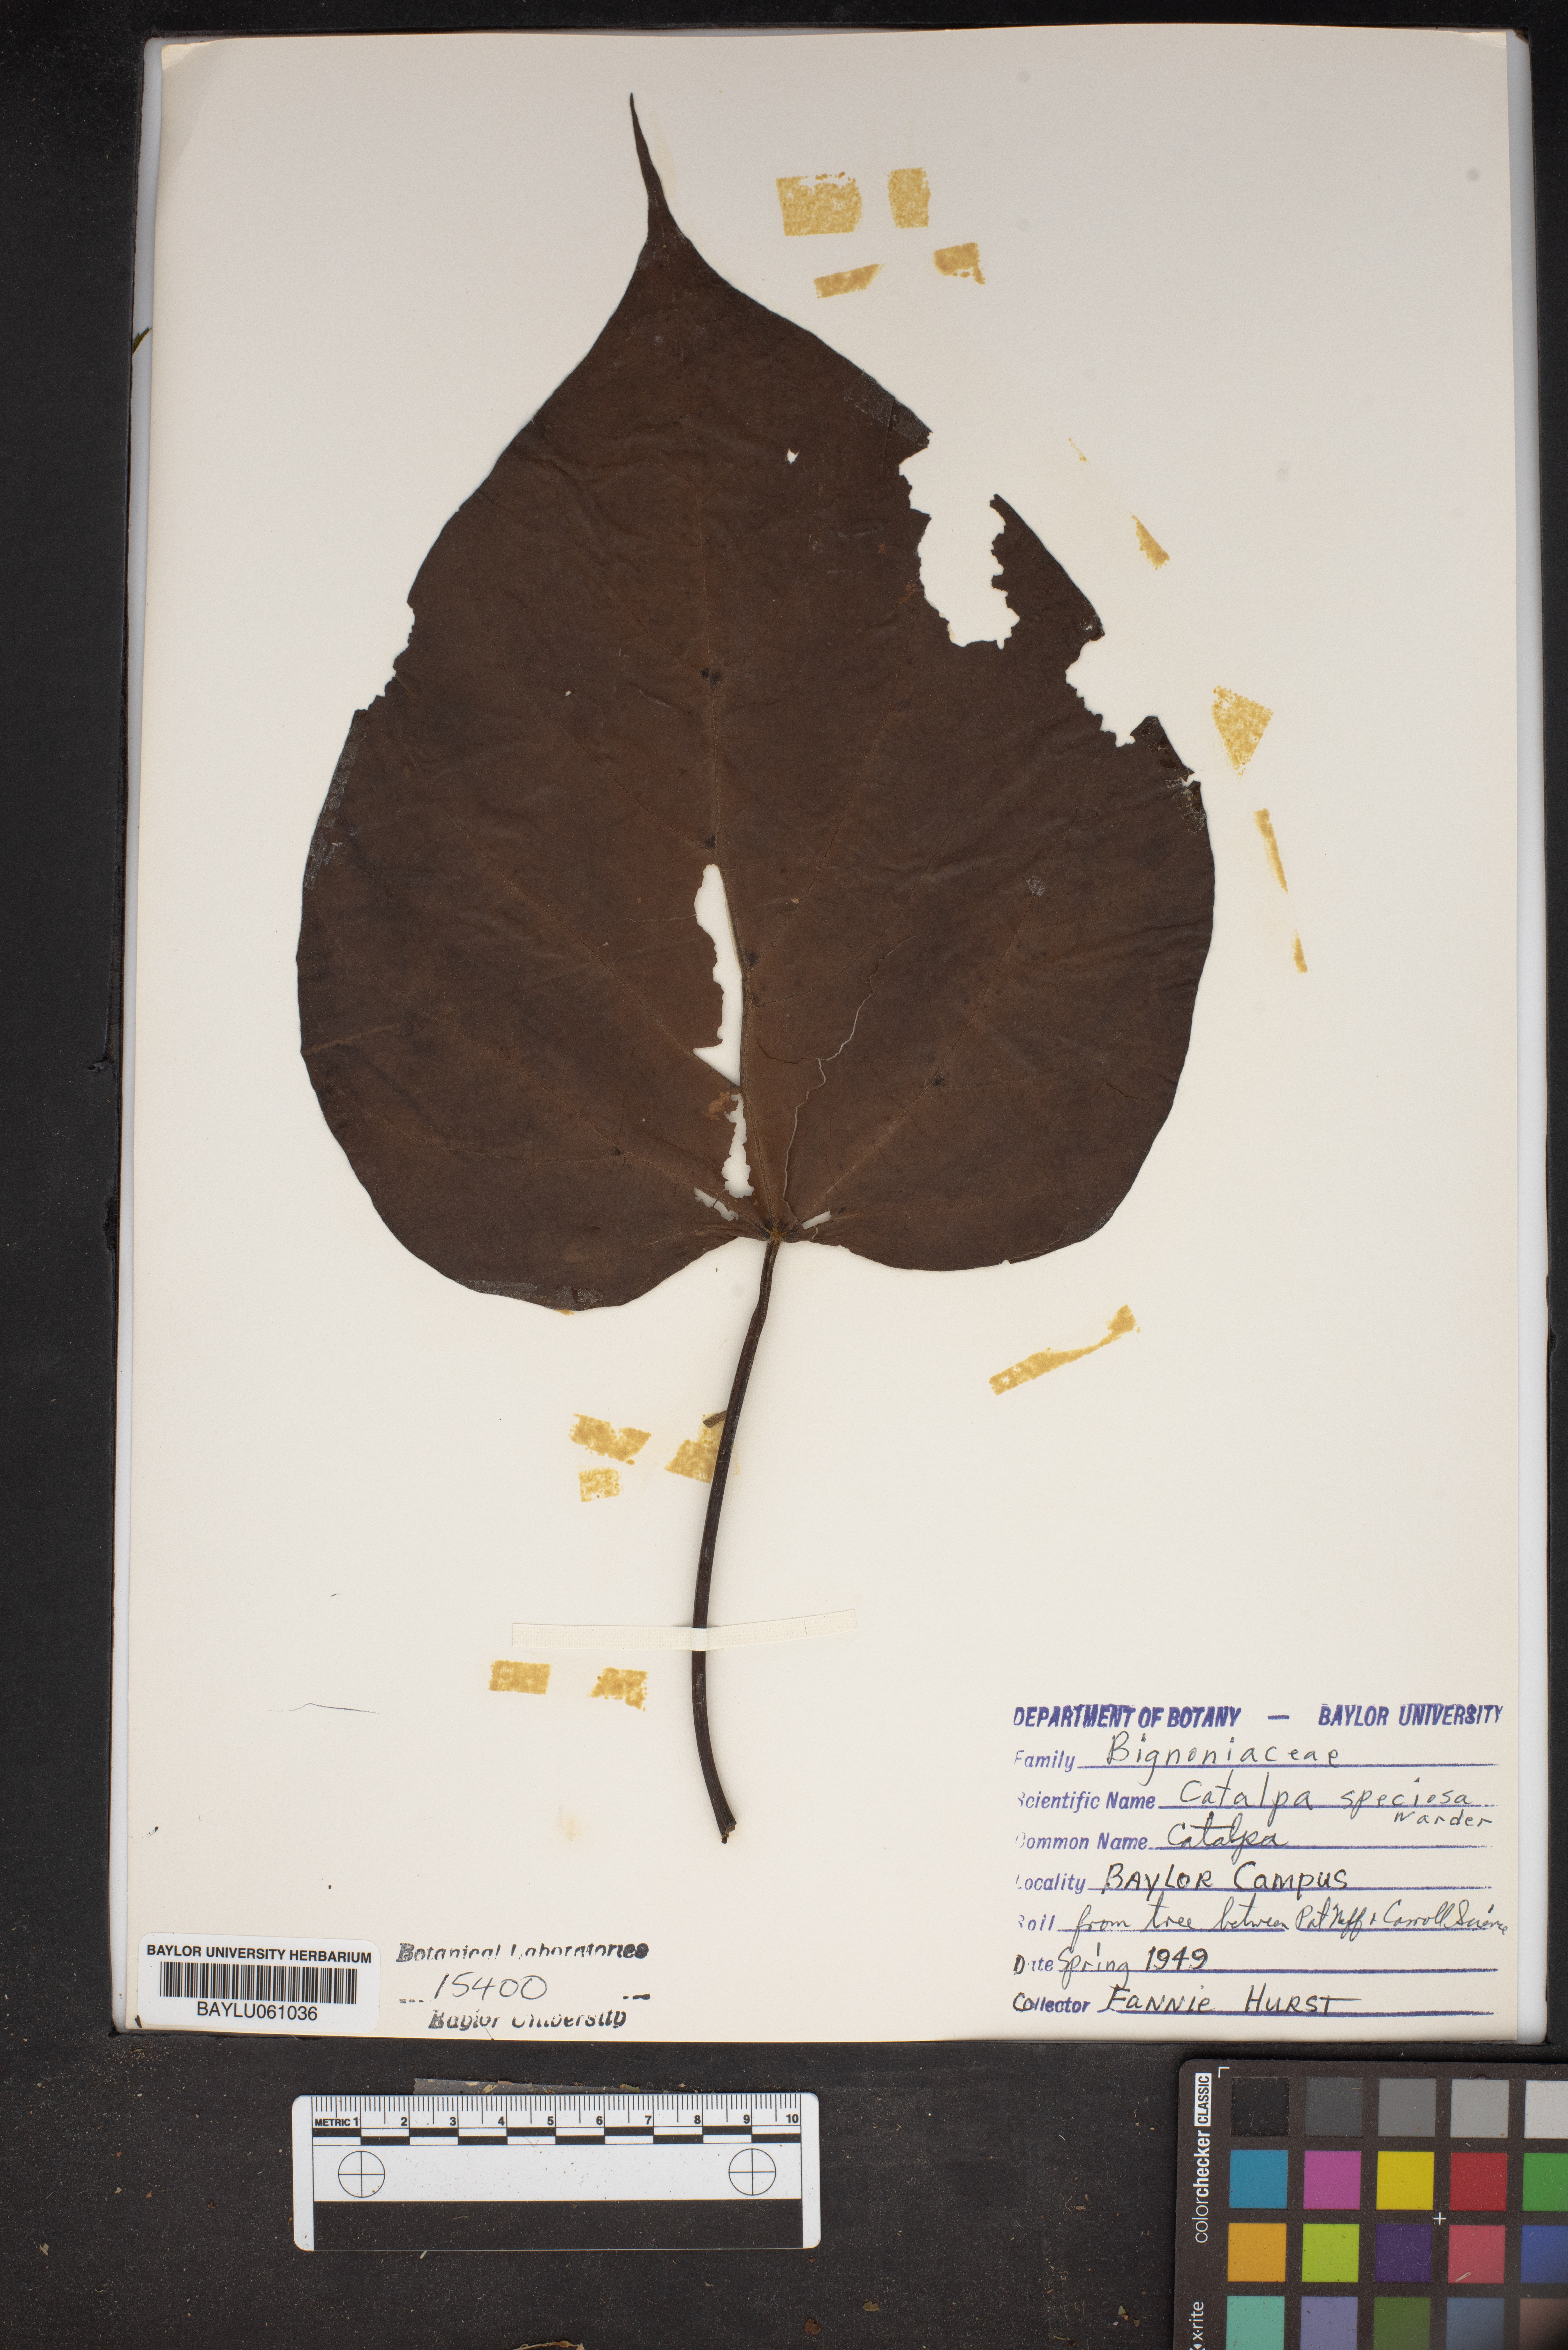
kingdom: Plantae
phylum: Tracheophyta
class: Magnoliopsida
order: Lamiales
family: Bignoniaceae
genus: Catalpa
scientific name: Catalpa speciosa
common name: Northern catalpa
